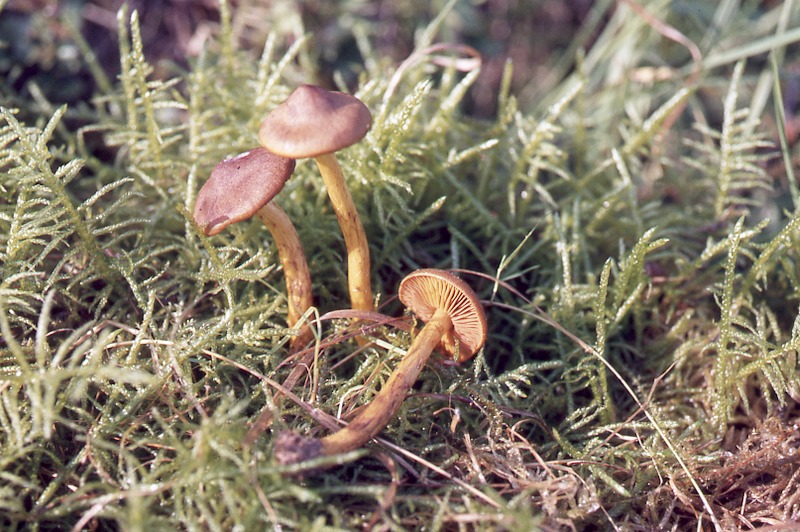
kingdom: Fungi
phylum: Basidiomycota
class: Agaricomycetes
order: Agaricales
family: Cortinariaceae
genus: Cortinarius
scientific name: Cortinarius malicorius
